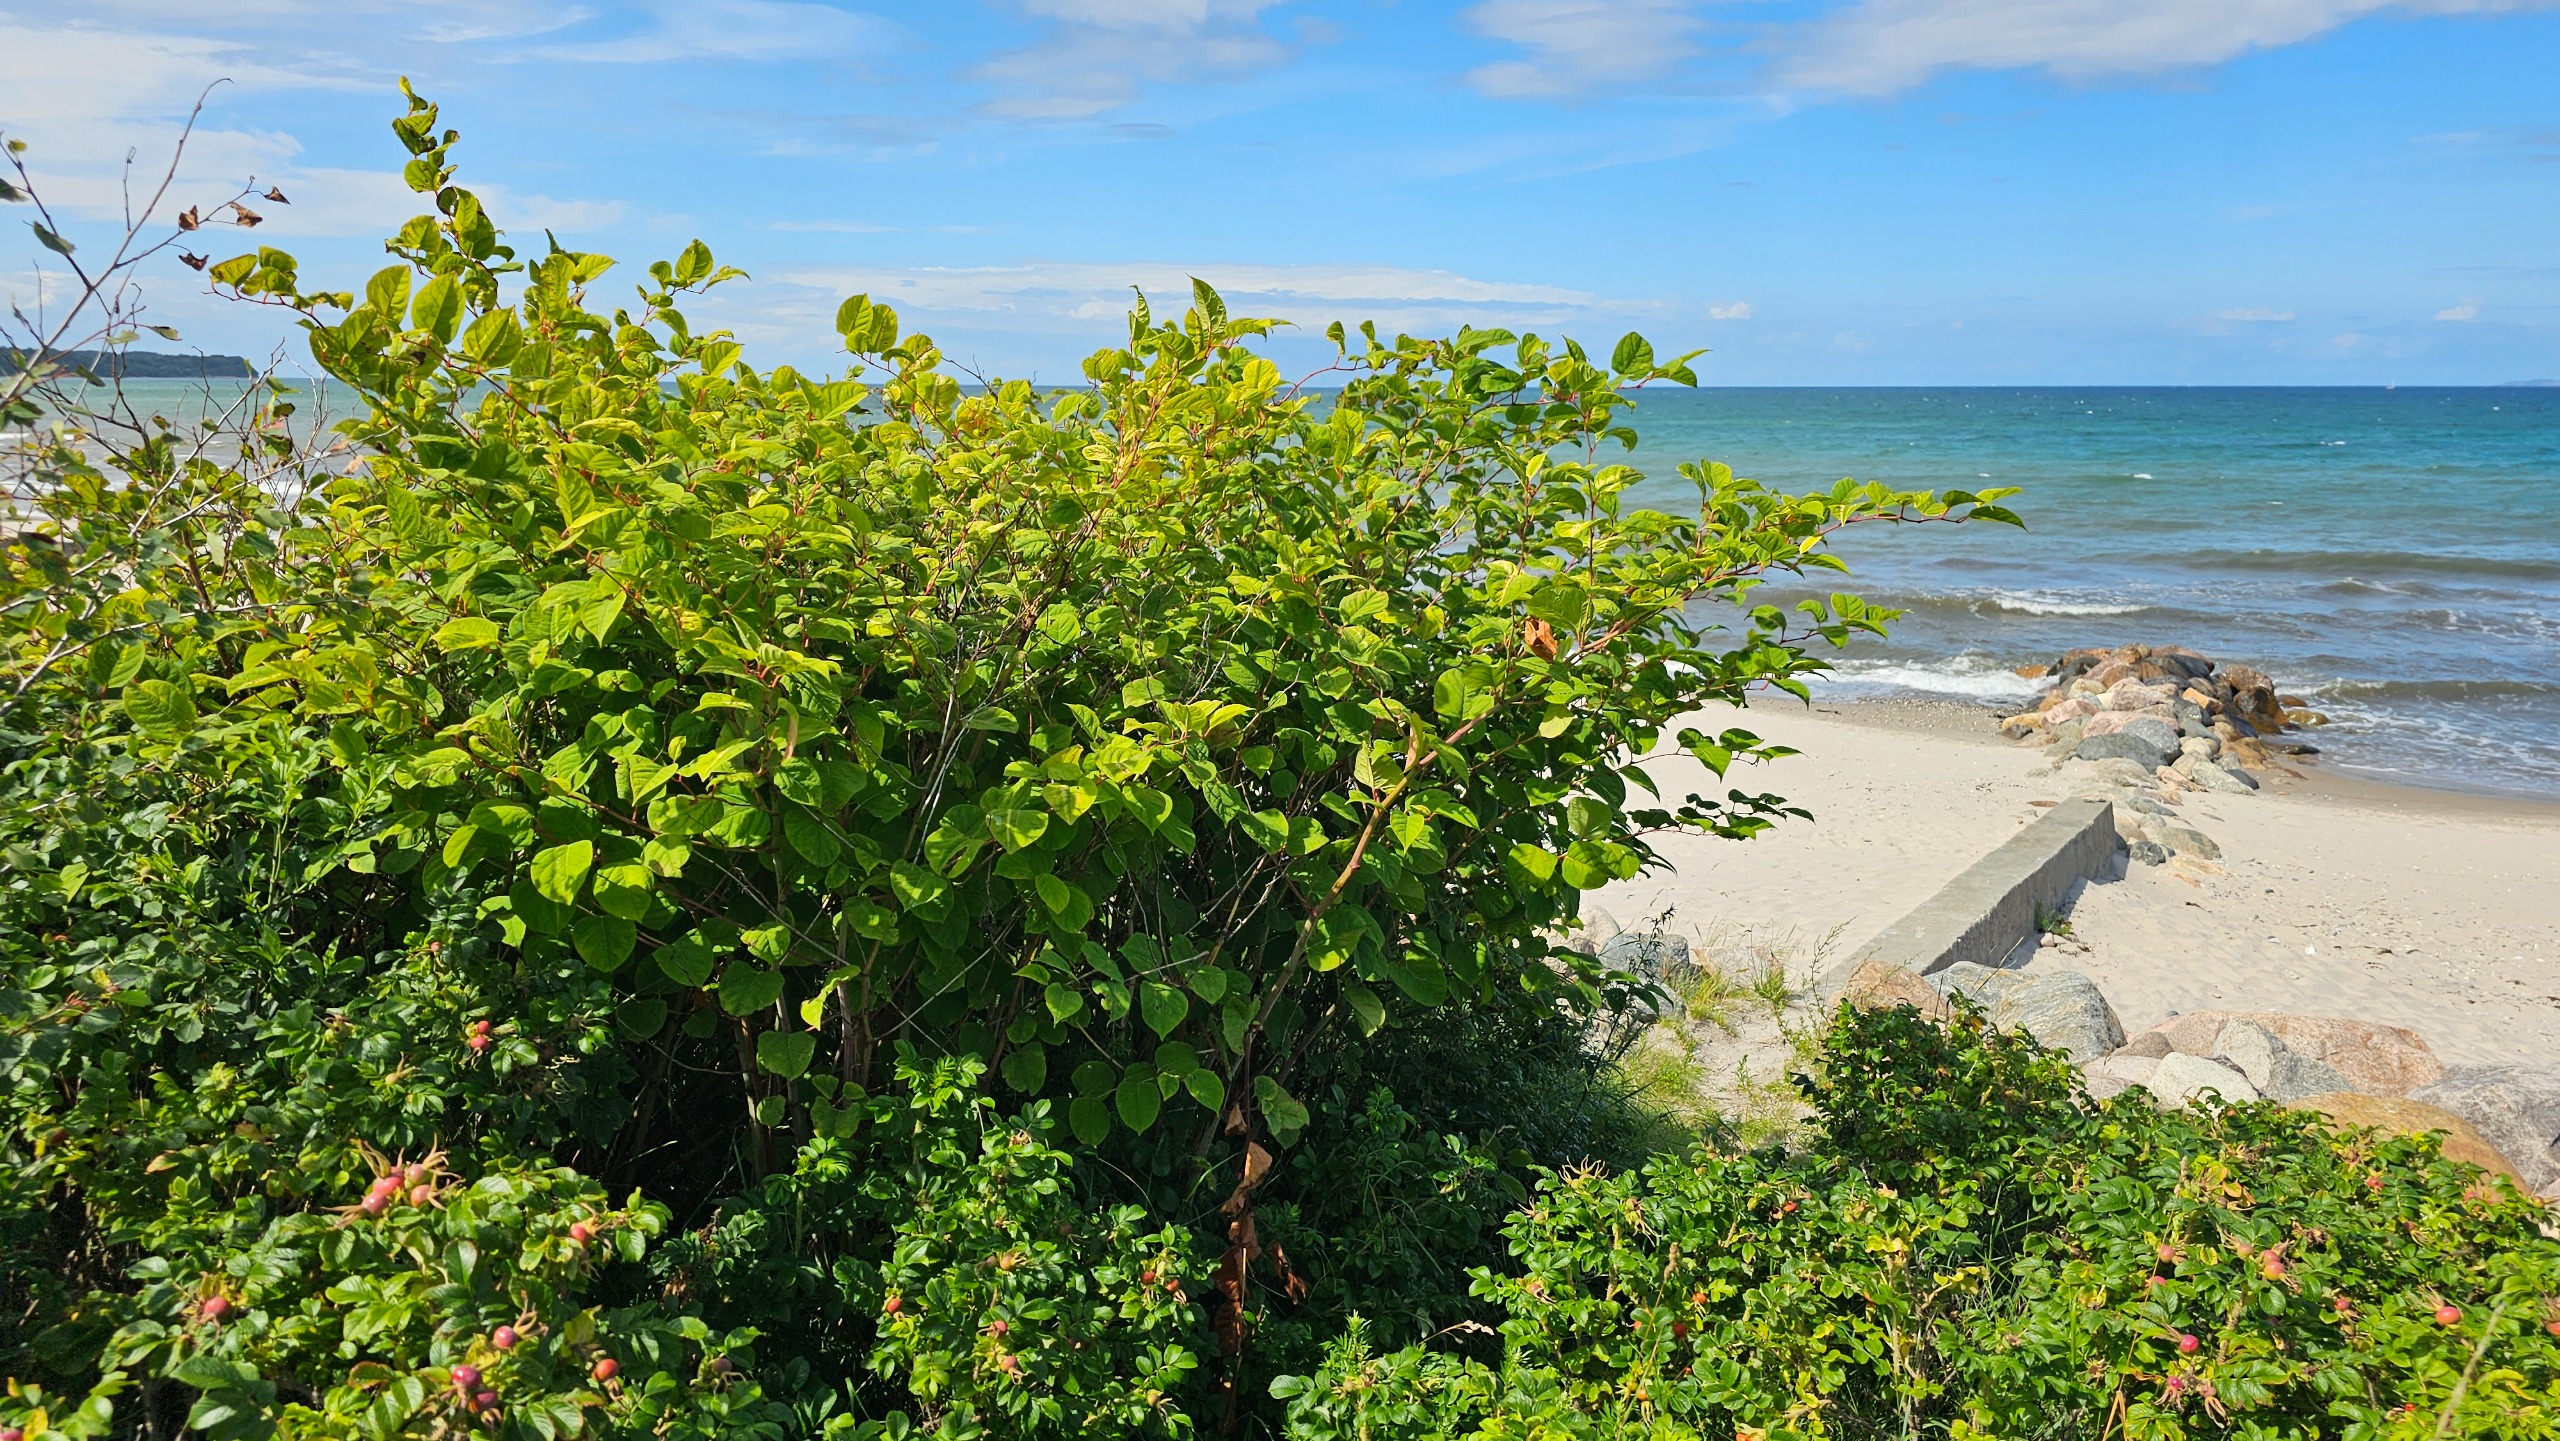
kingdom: Plantae
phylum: Tracheophyta
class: Magnoliopsida
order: Caryophyllales
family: Polygonaceae
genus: Reynoutria
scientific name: Reynoutria japonica
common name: Japan-pileurt
